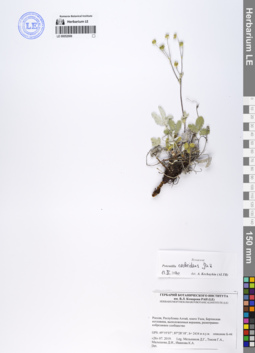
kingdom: Plantae
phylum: Tracheophyta
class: Magnoliopsida
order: Rosales
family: Rosaceae
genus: Potentilla
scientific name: Potentilla crebridens
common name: Congested cinquefoil
